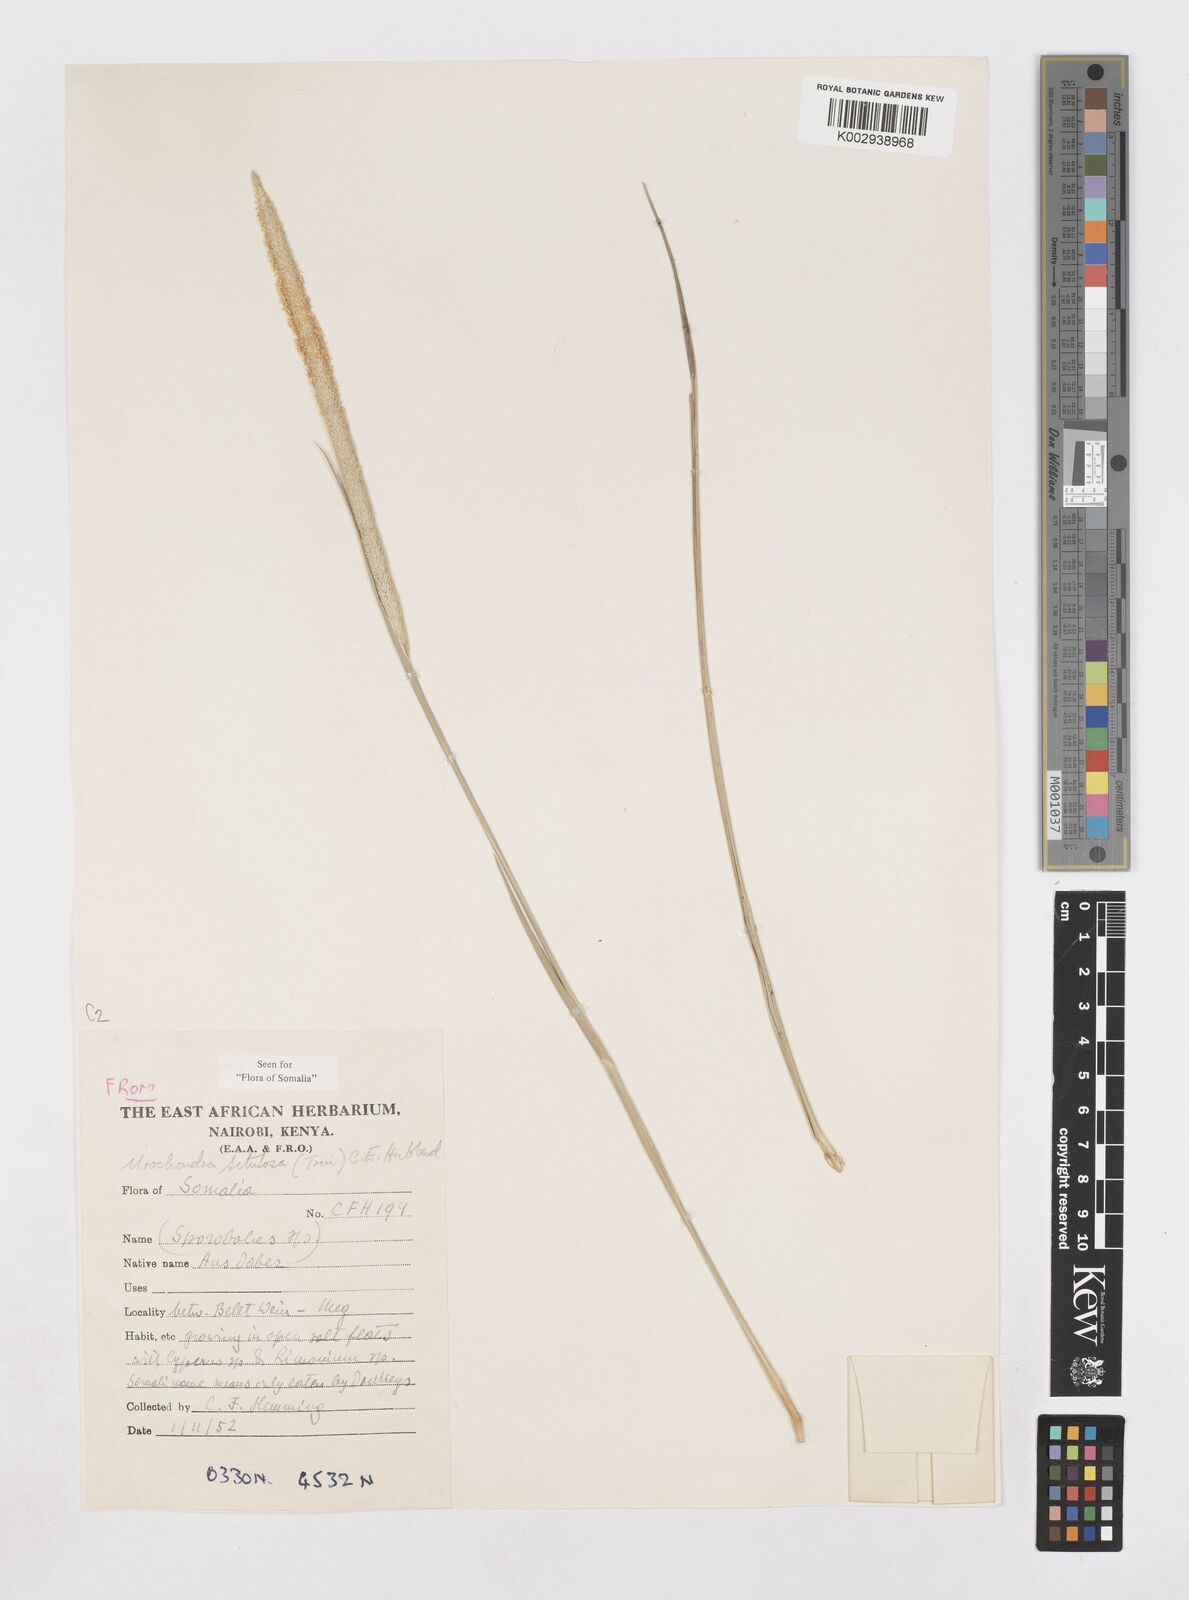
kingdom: Plantae
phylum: Tracheophyta
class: Liliopsida
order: Poales
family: Poaceae
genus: Urochondra
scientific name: Urochondra setulosa
